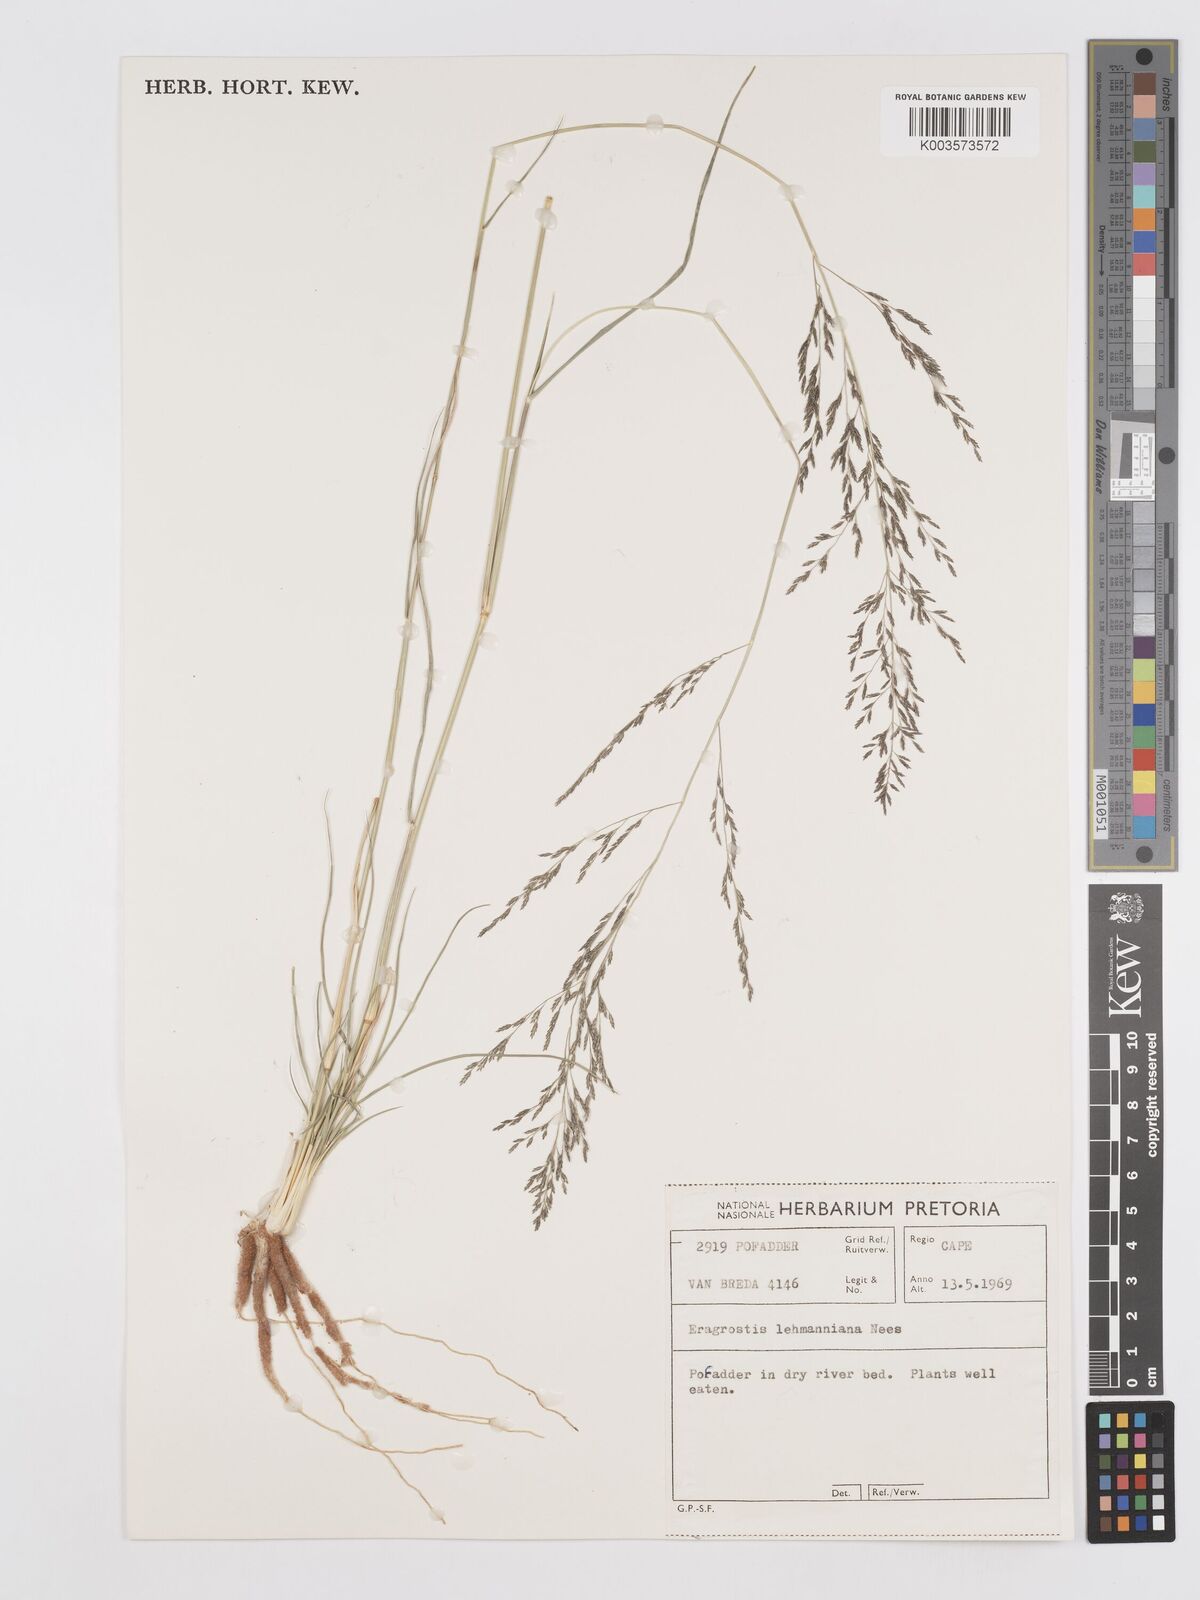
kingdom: Plantae
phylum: Tracheophyta
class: Liliopsida
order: Poales
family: Poaceae
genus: Eragrostis
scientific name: Eragrostis lehmanniana
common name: Lehmann lovegrass
